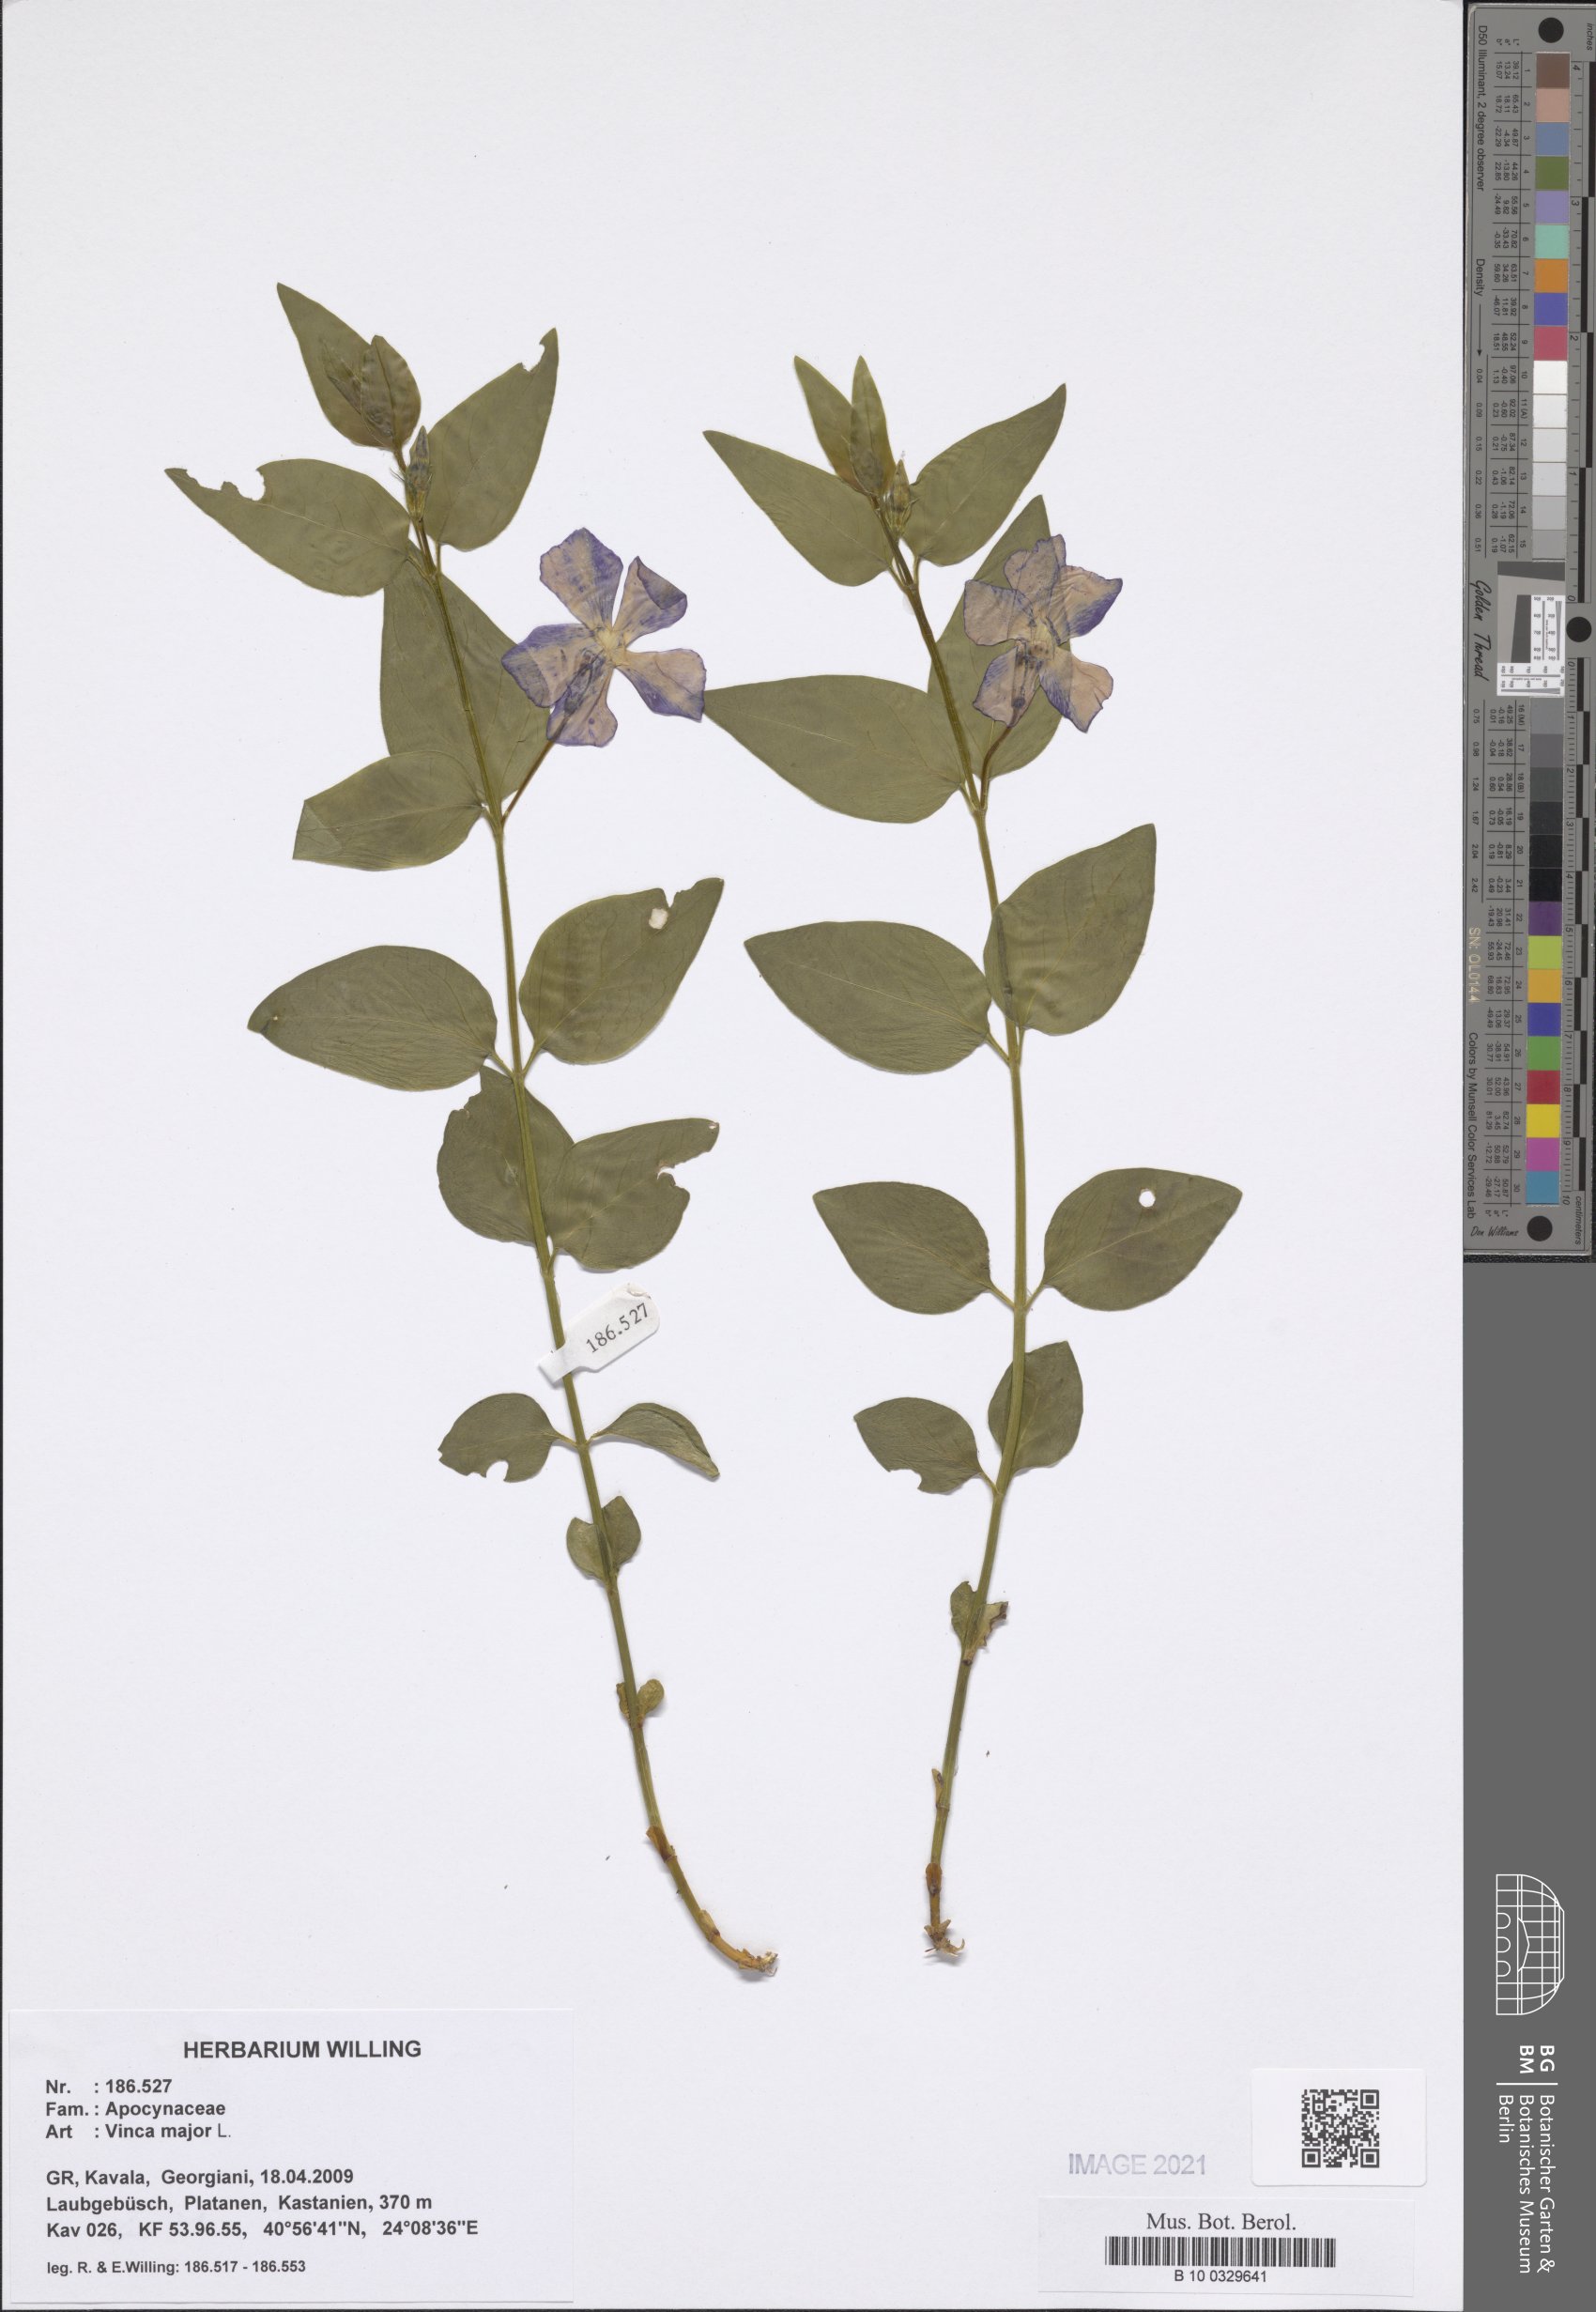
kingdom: Plantae
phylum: Tracheophyta
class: Magnoliopsida
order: Gentianales
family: Apocynaceae
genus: Vinca
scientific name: Vinca major
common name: Greater periwinkle
